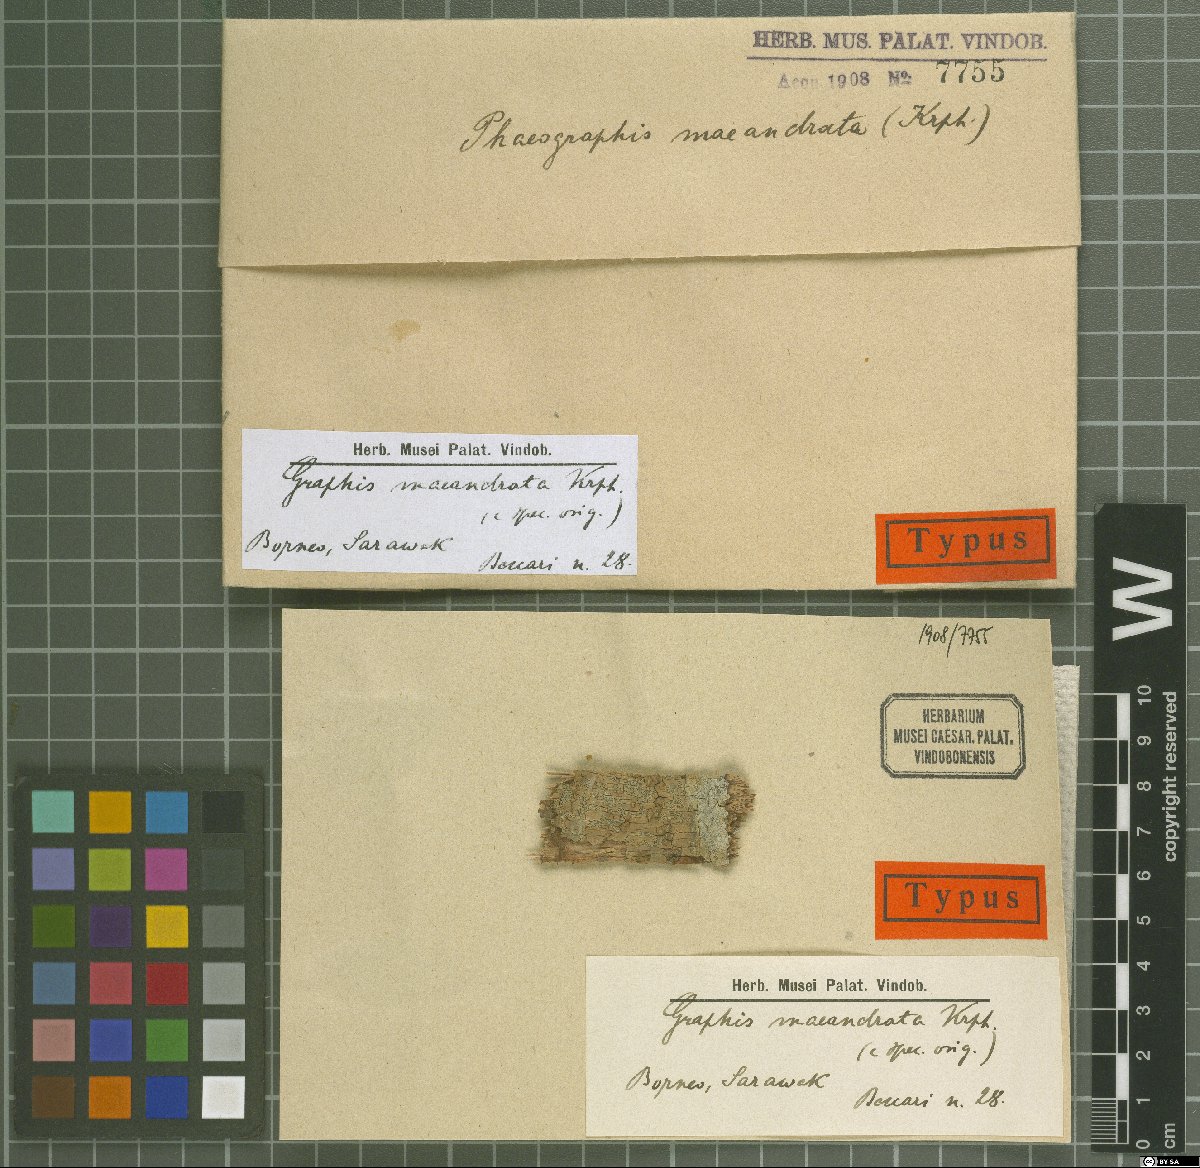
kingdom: Fungi
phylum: Ascomycota
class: Lecanoromycetes
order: Ostropales
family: Graphidaceae
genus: Graphis
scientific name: Graphis
